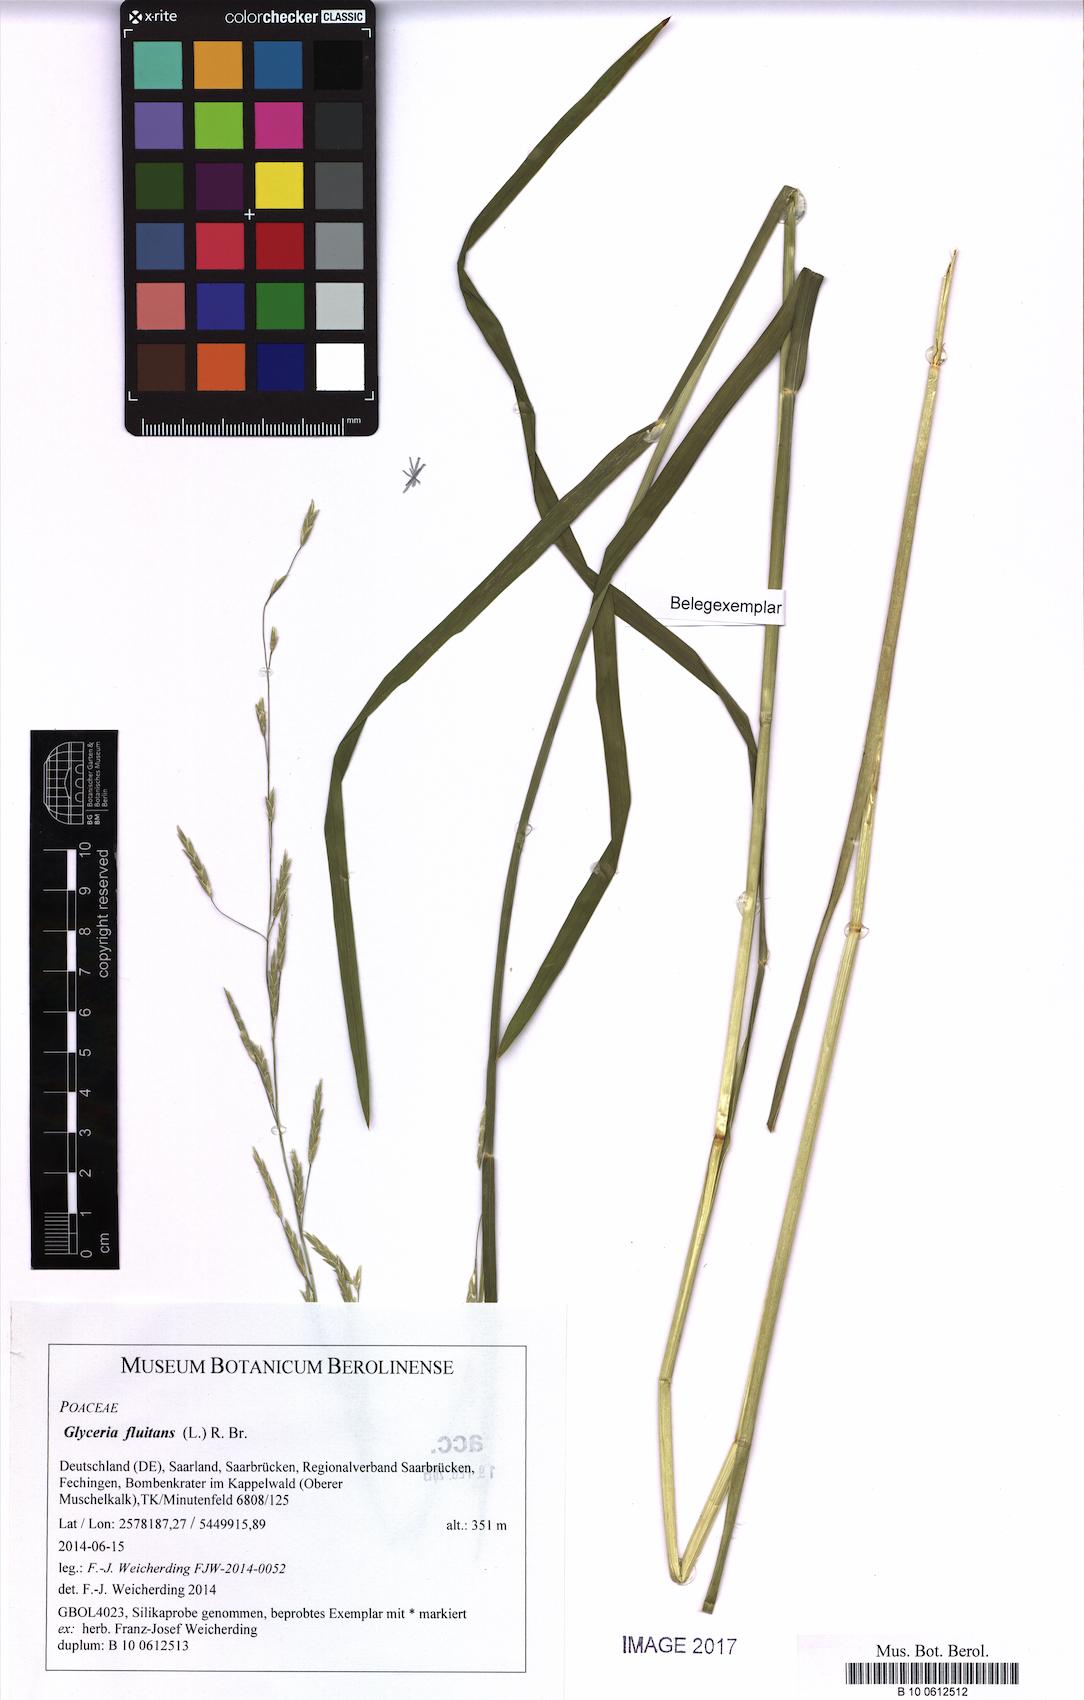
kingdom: Plantae
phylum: Tracheophyta
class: Liliopsida
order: Poales
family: Poaceae
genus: Glyceria
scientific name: Glyceria fluitans
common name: Floating sweet-grass
